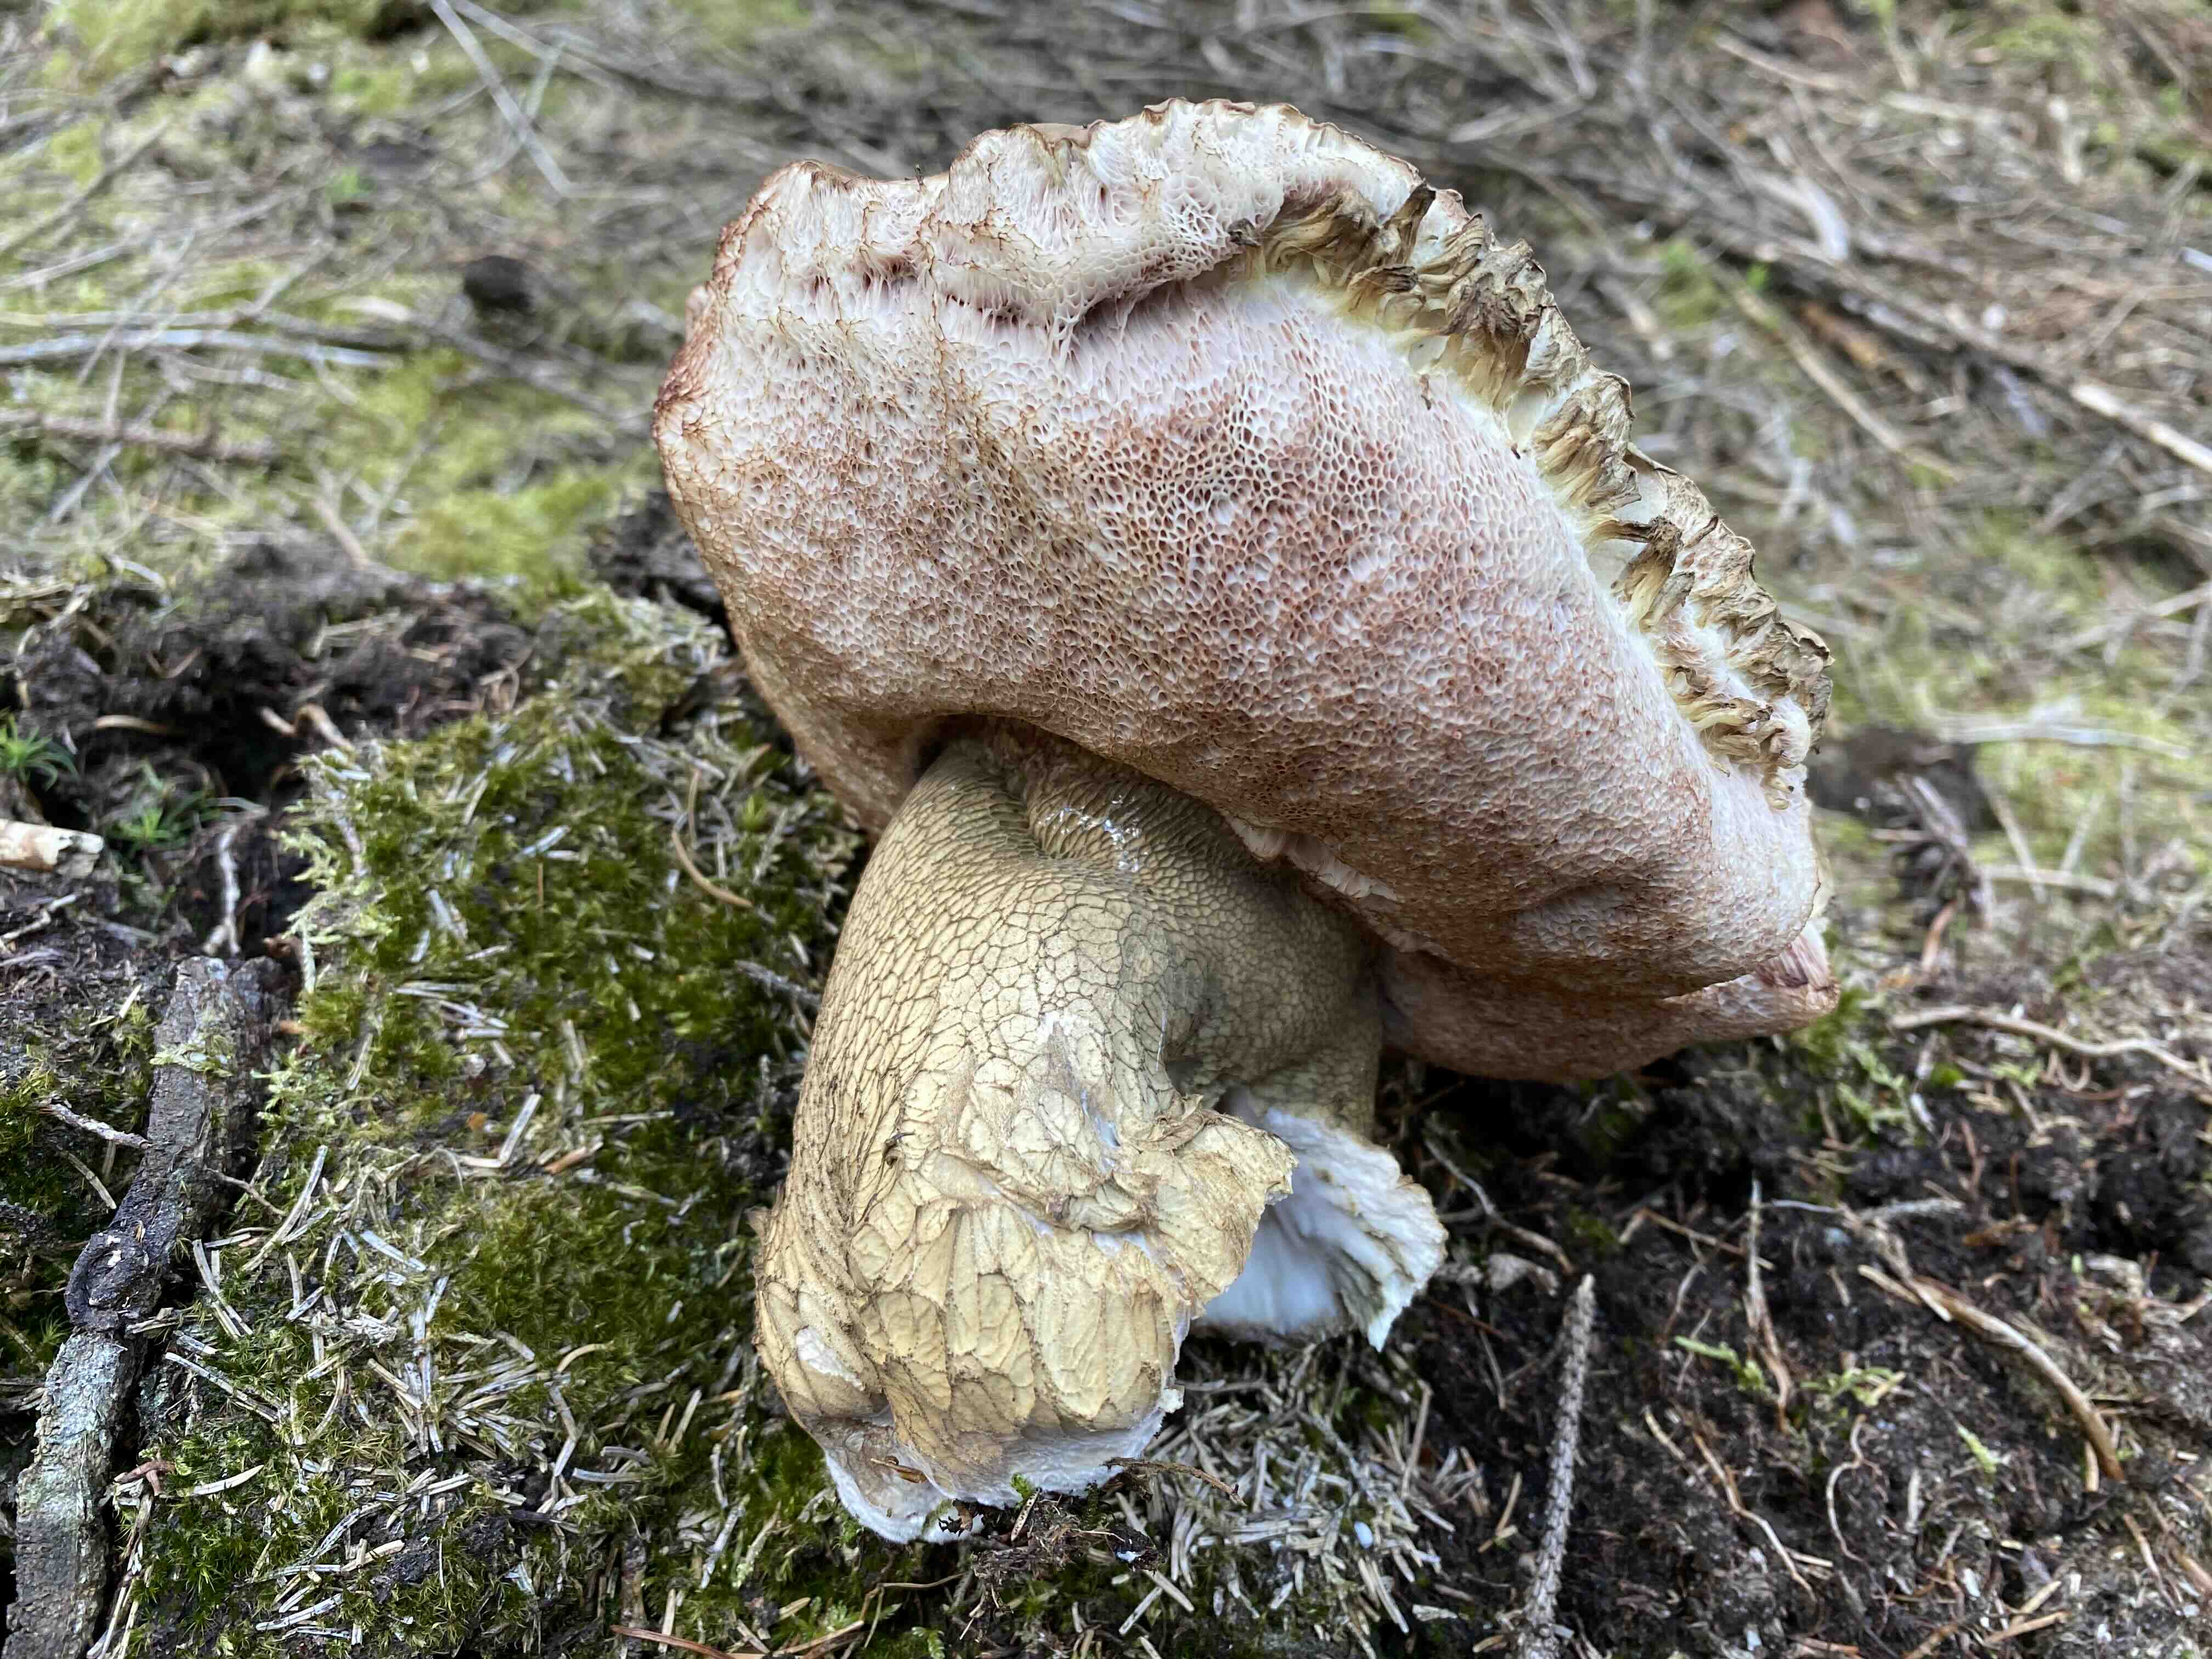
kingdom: Fungi
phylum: Basidiomycota
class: Agaricomycetes
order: Boletales
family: Boletaceae
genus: Tylopilus
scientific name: Tylopilus felleus
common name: galderørhat
